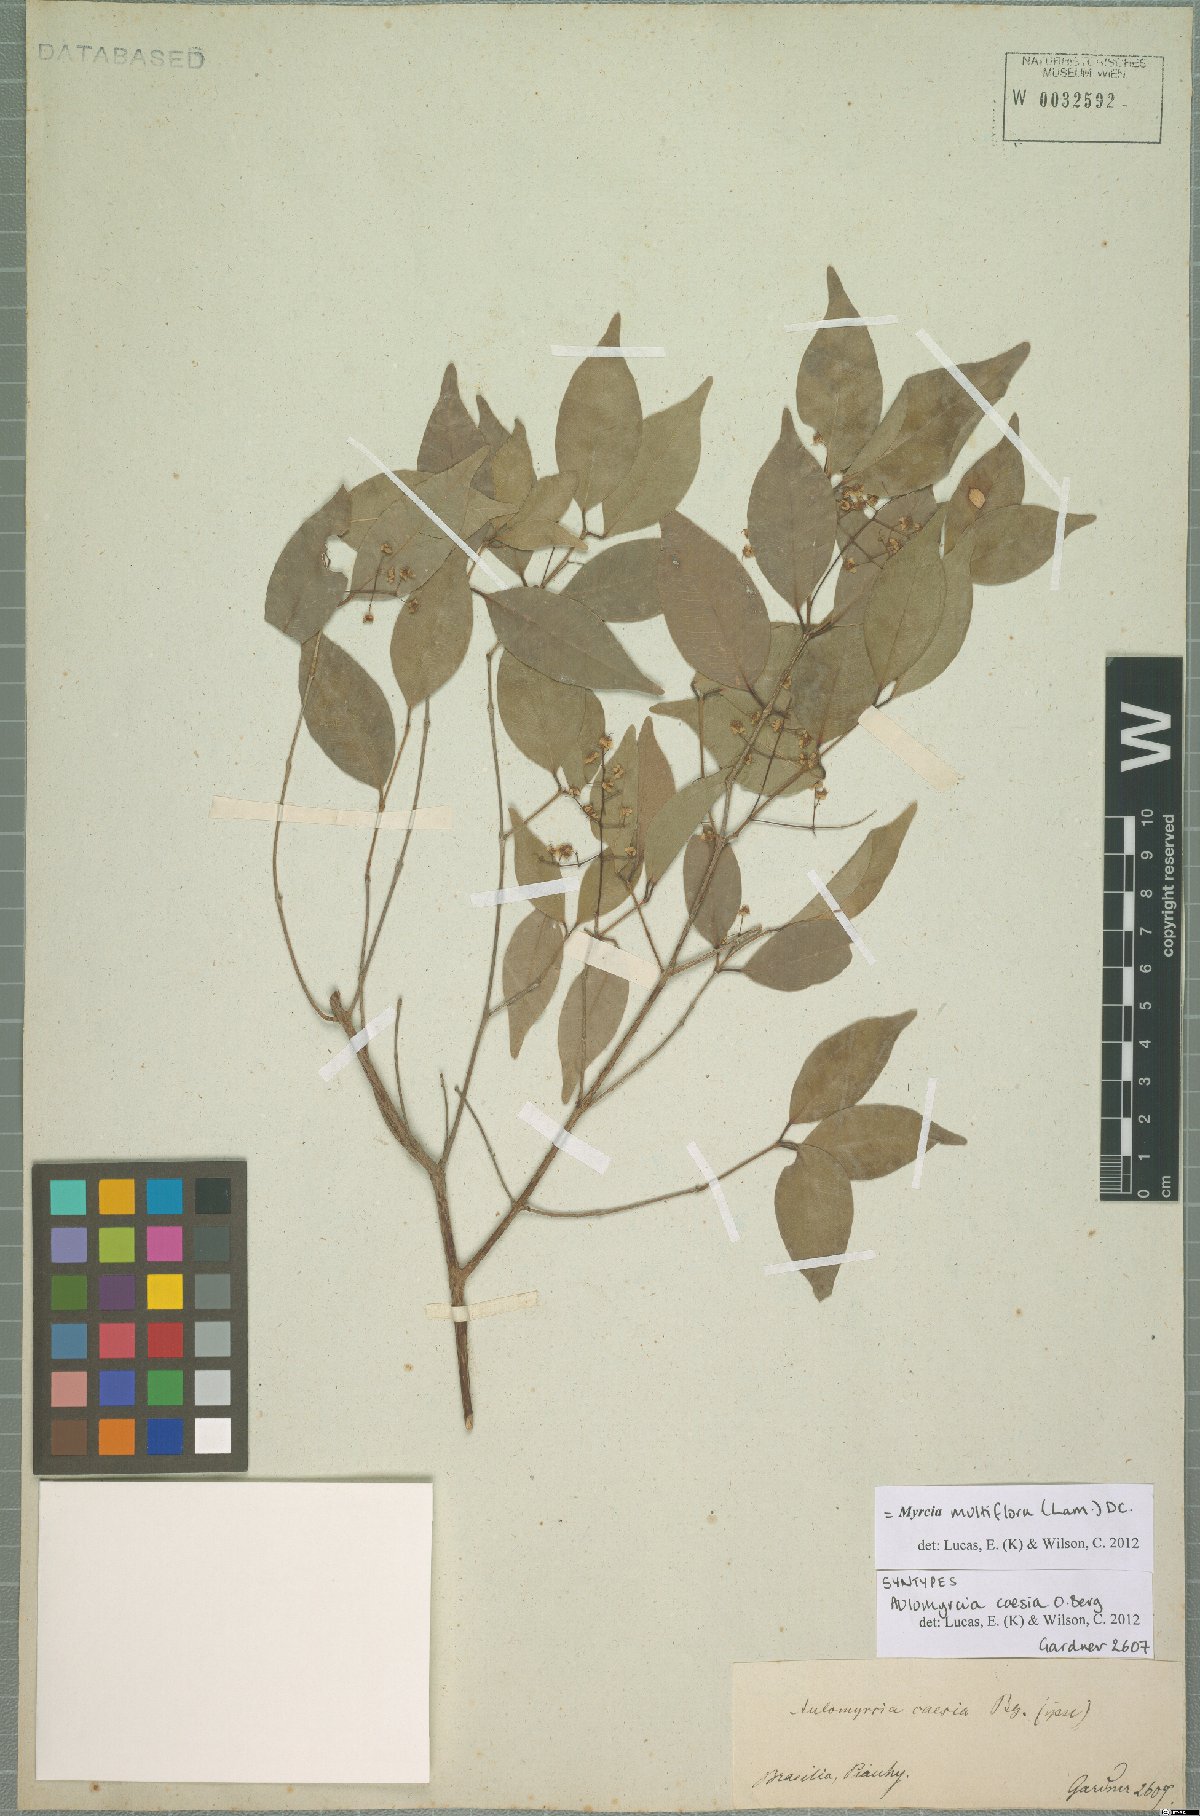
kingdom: Plantae
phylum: Tracheophyta
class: Magnoliopsida
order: Myrtales
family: Myrtaceae
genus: Myrcia
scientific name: Myrcia multiflora
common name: Pedra hume
